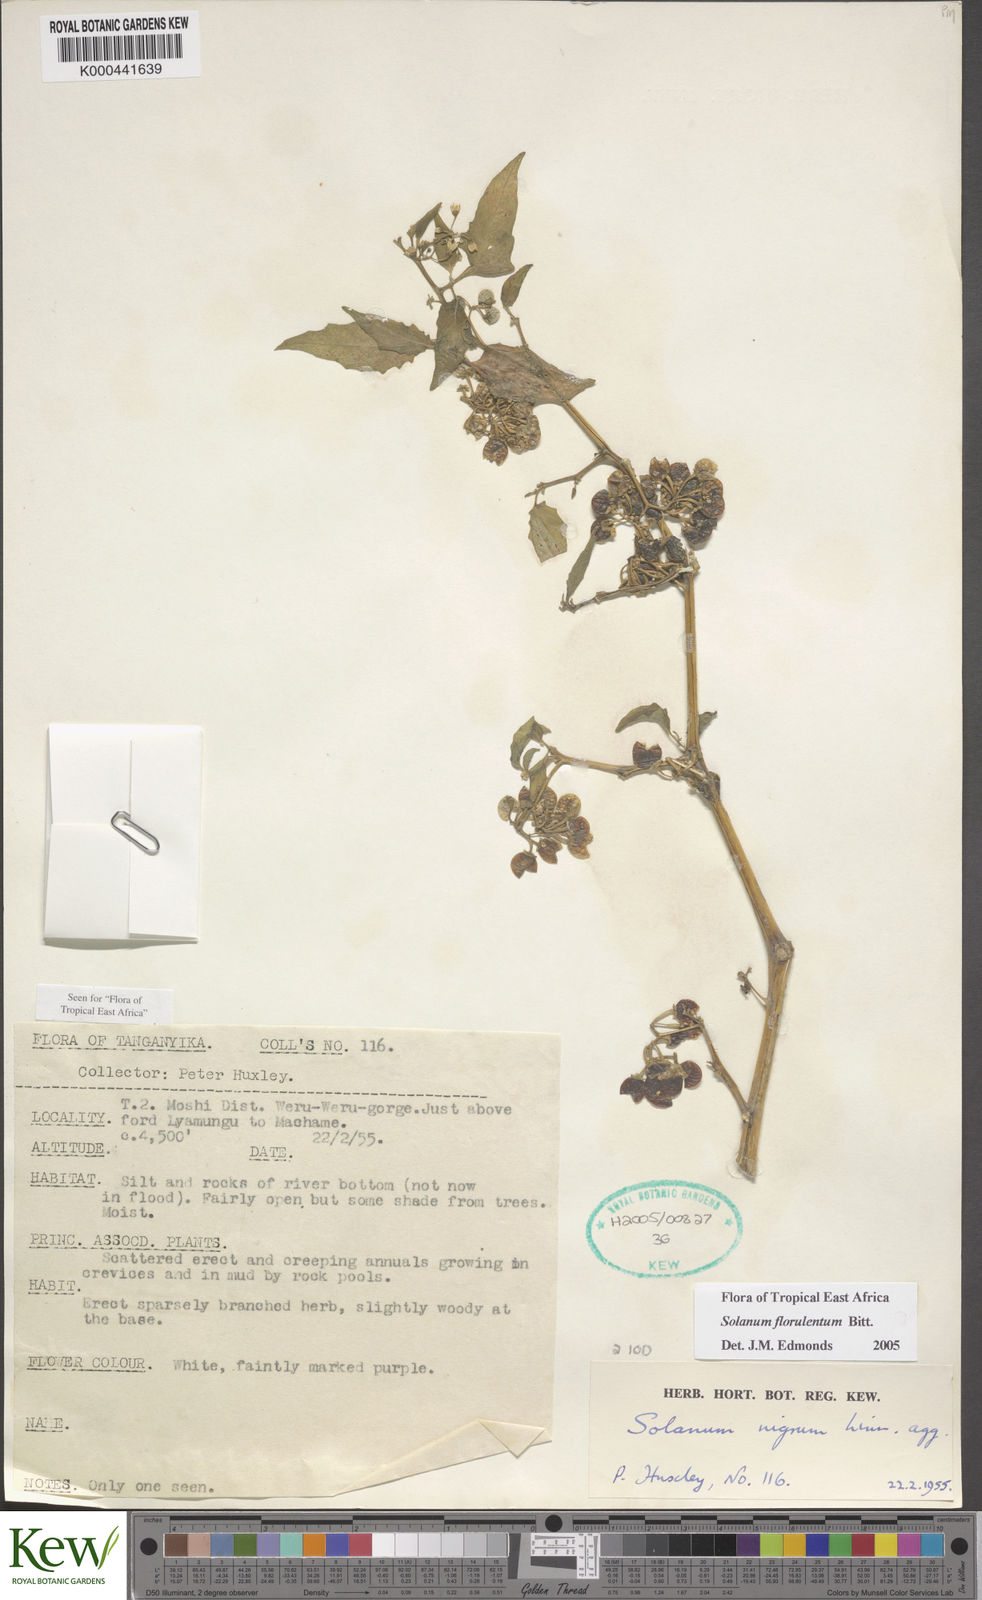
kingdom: Plantae
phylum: Tracheophyta
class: Magnoliopsida
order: Solanales
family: Solanaceae
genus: Solanum
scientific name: Solanum tarderemotum
